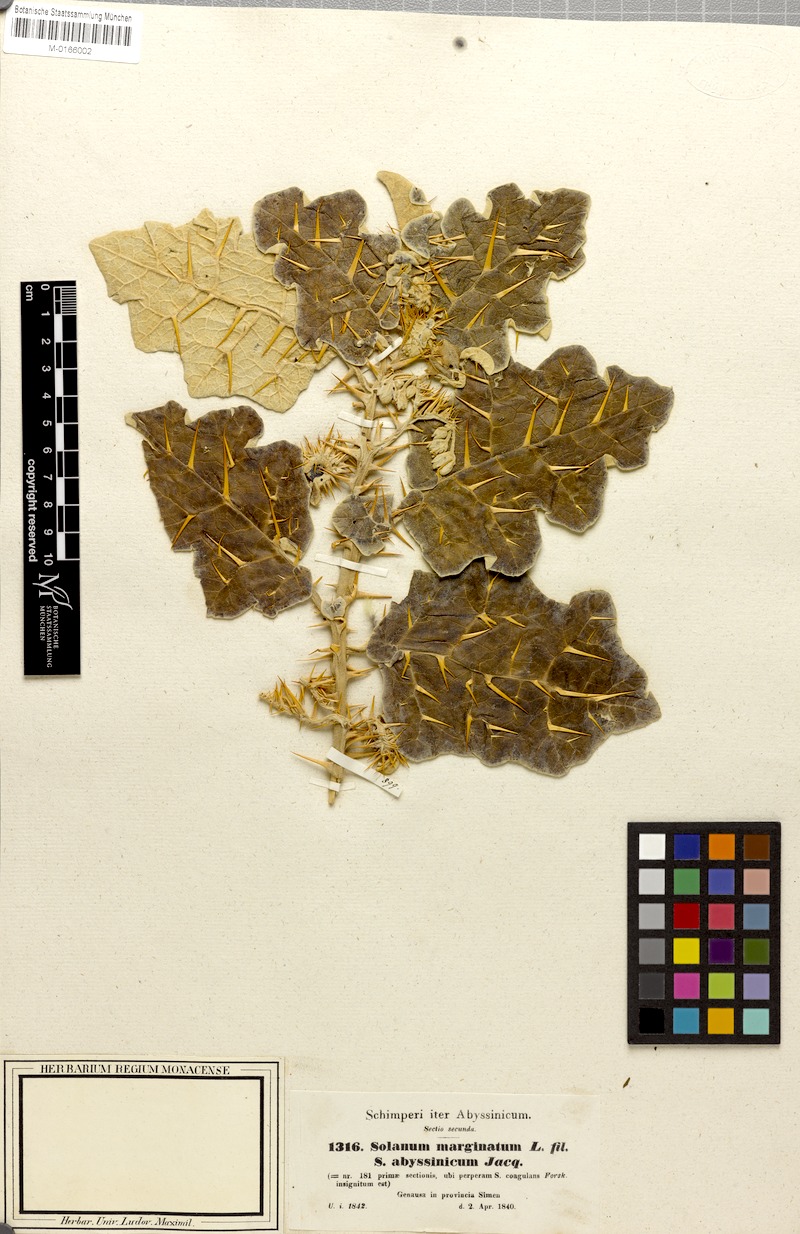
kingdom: Plantae
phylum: Tracheophyta
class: Magnoliopsida
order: Solanales
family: Solanaceae
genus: Solanum
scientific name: Solanum marginatum
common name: Purple african nightshade
